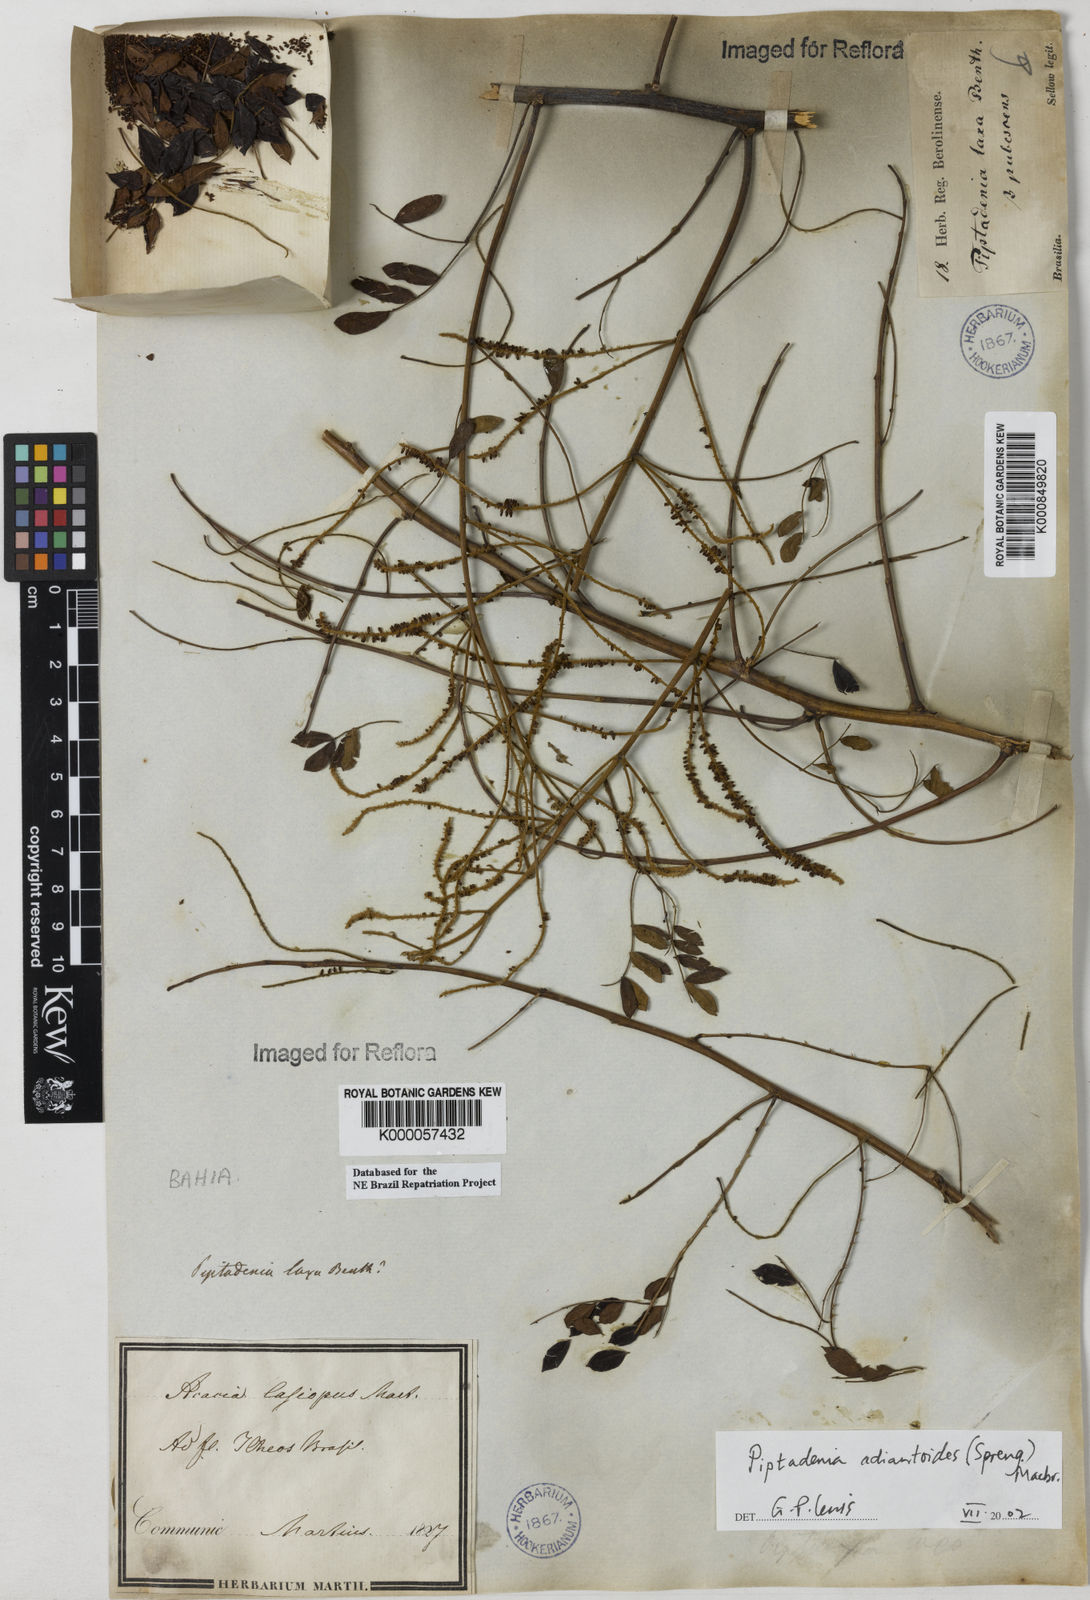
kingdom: Plantae
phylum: Tracheophyta
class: Magnoliopsida
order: Fabales
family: Fabaceae
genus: Piptadenia
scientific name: Piptadenia adiantoides
